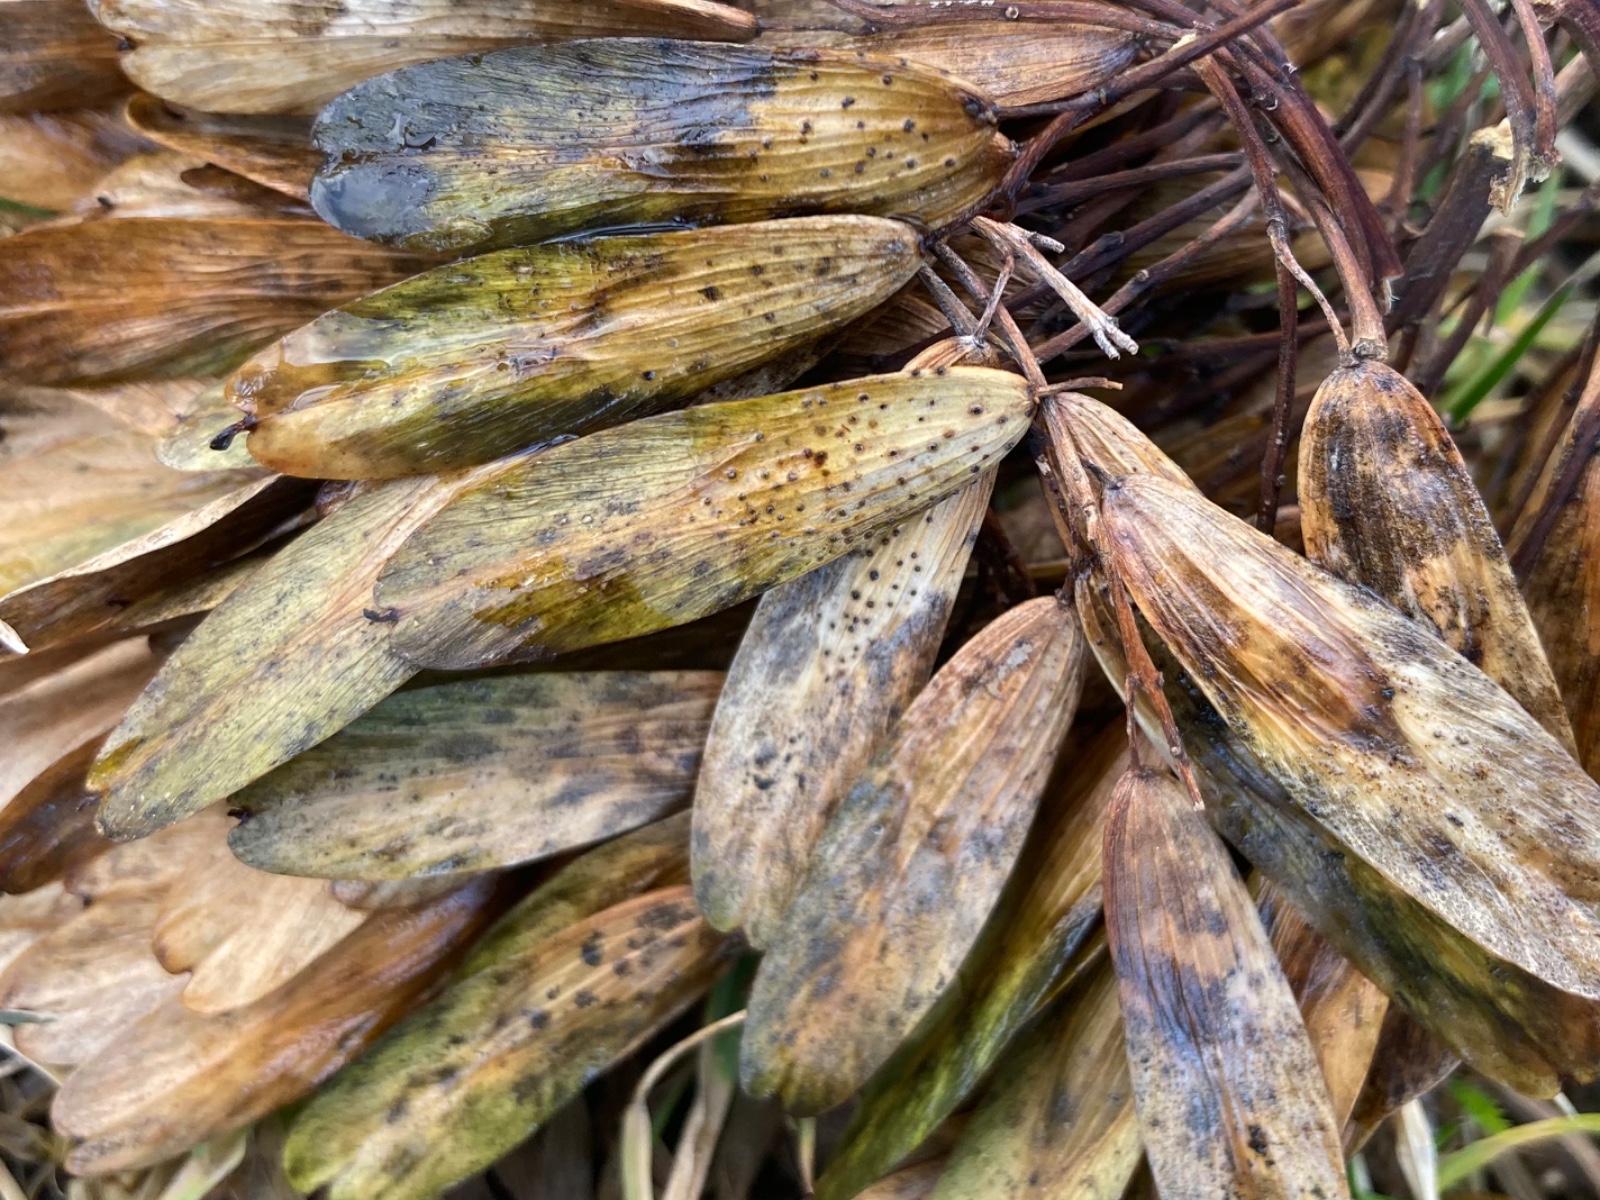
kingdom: Fungi
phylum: Ascomycota
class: Sordariomycetes
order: Diaporthales
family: Diaporthaceae
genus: Diaporthe
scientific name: Diaporthe samaricola
